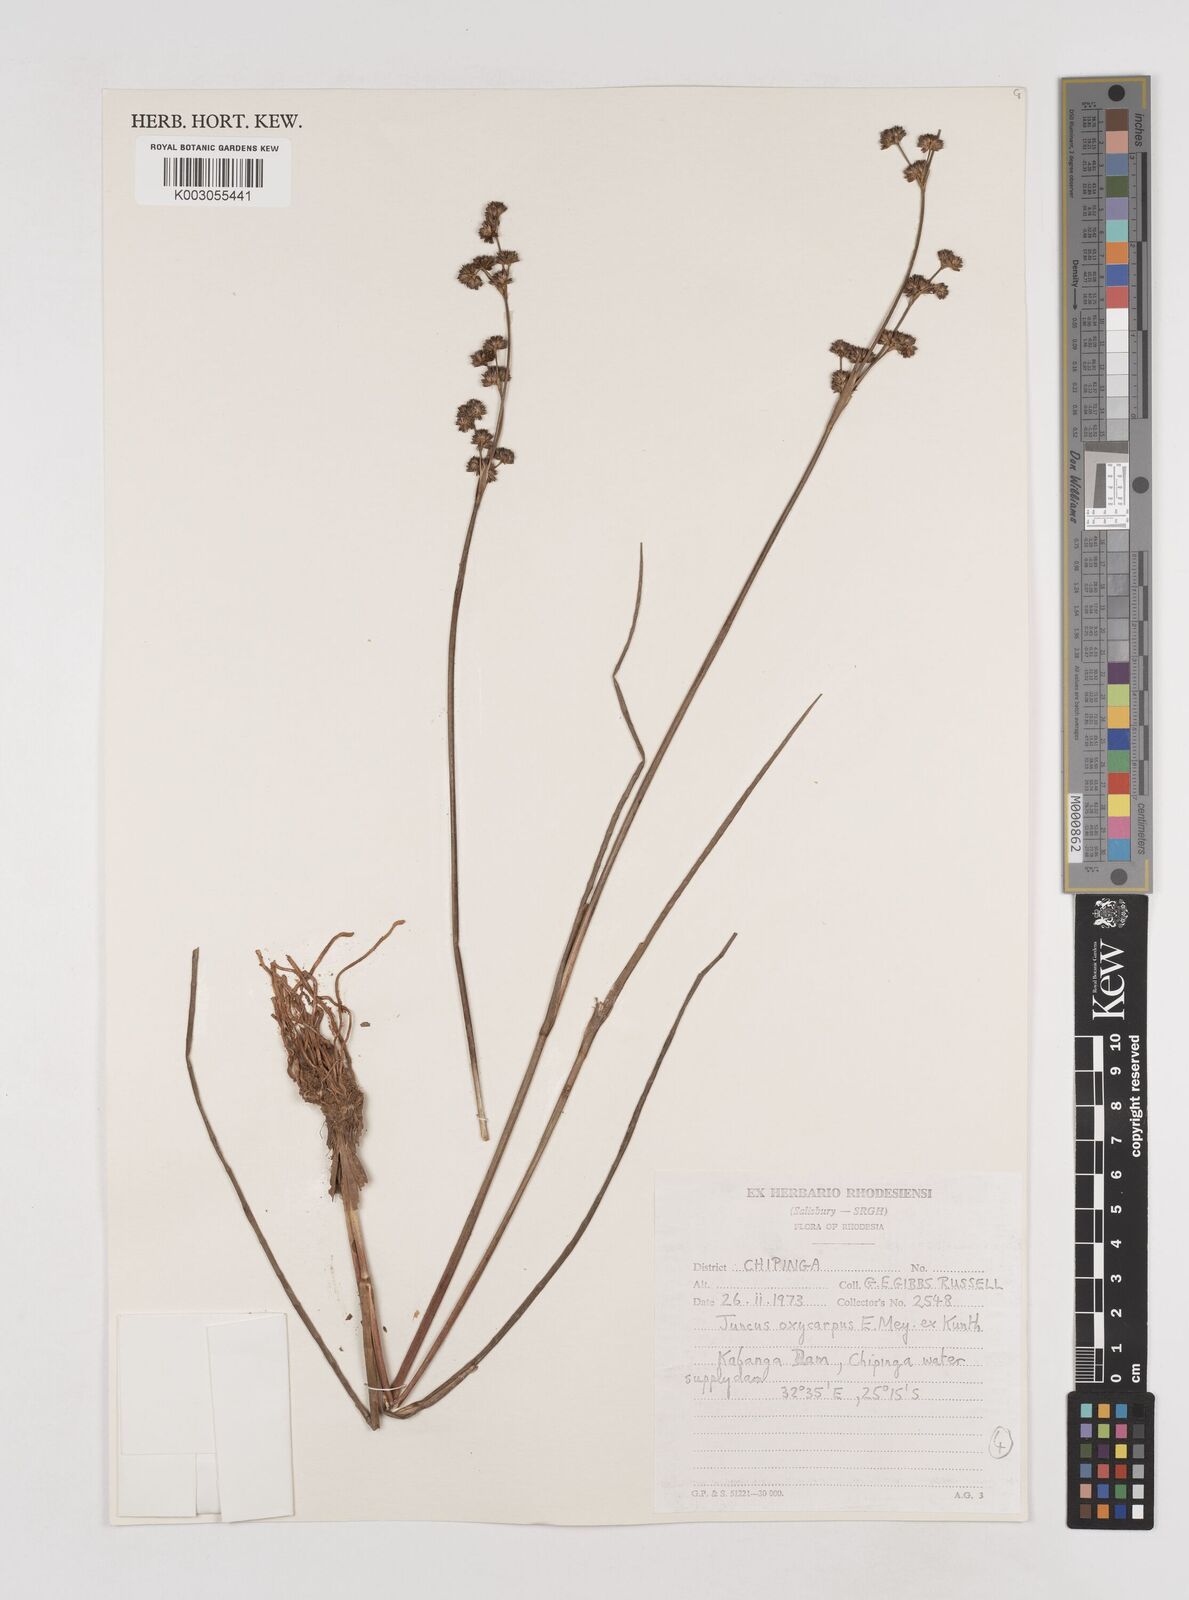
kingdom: Plantae
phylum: Tracheophyta
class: Liliopsida
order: Poales
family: Juncaceae
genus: Juncus
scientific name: Juncus oxycarpus
